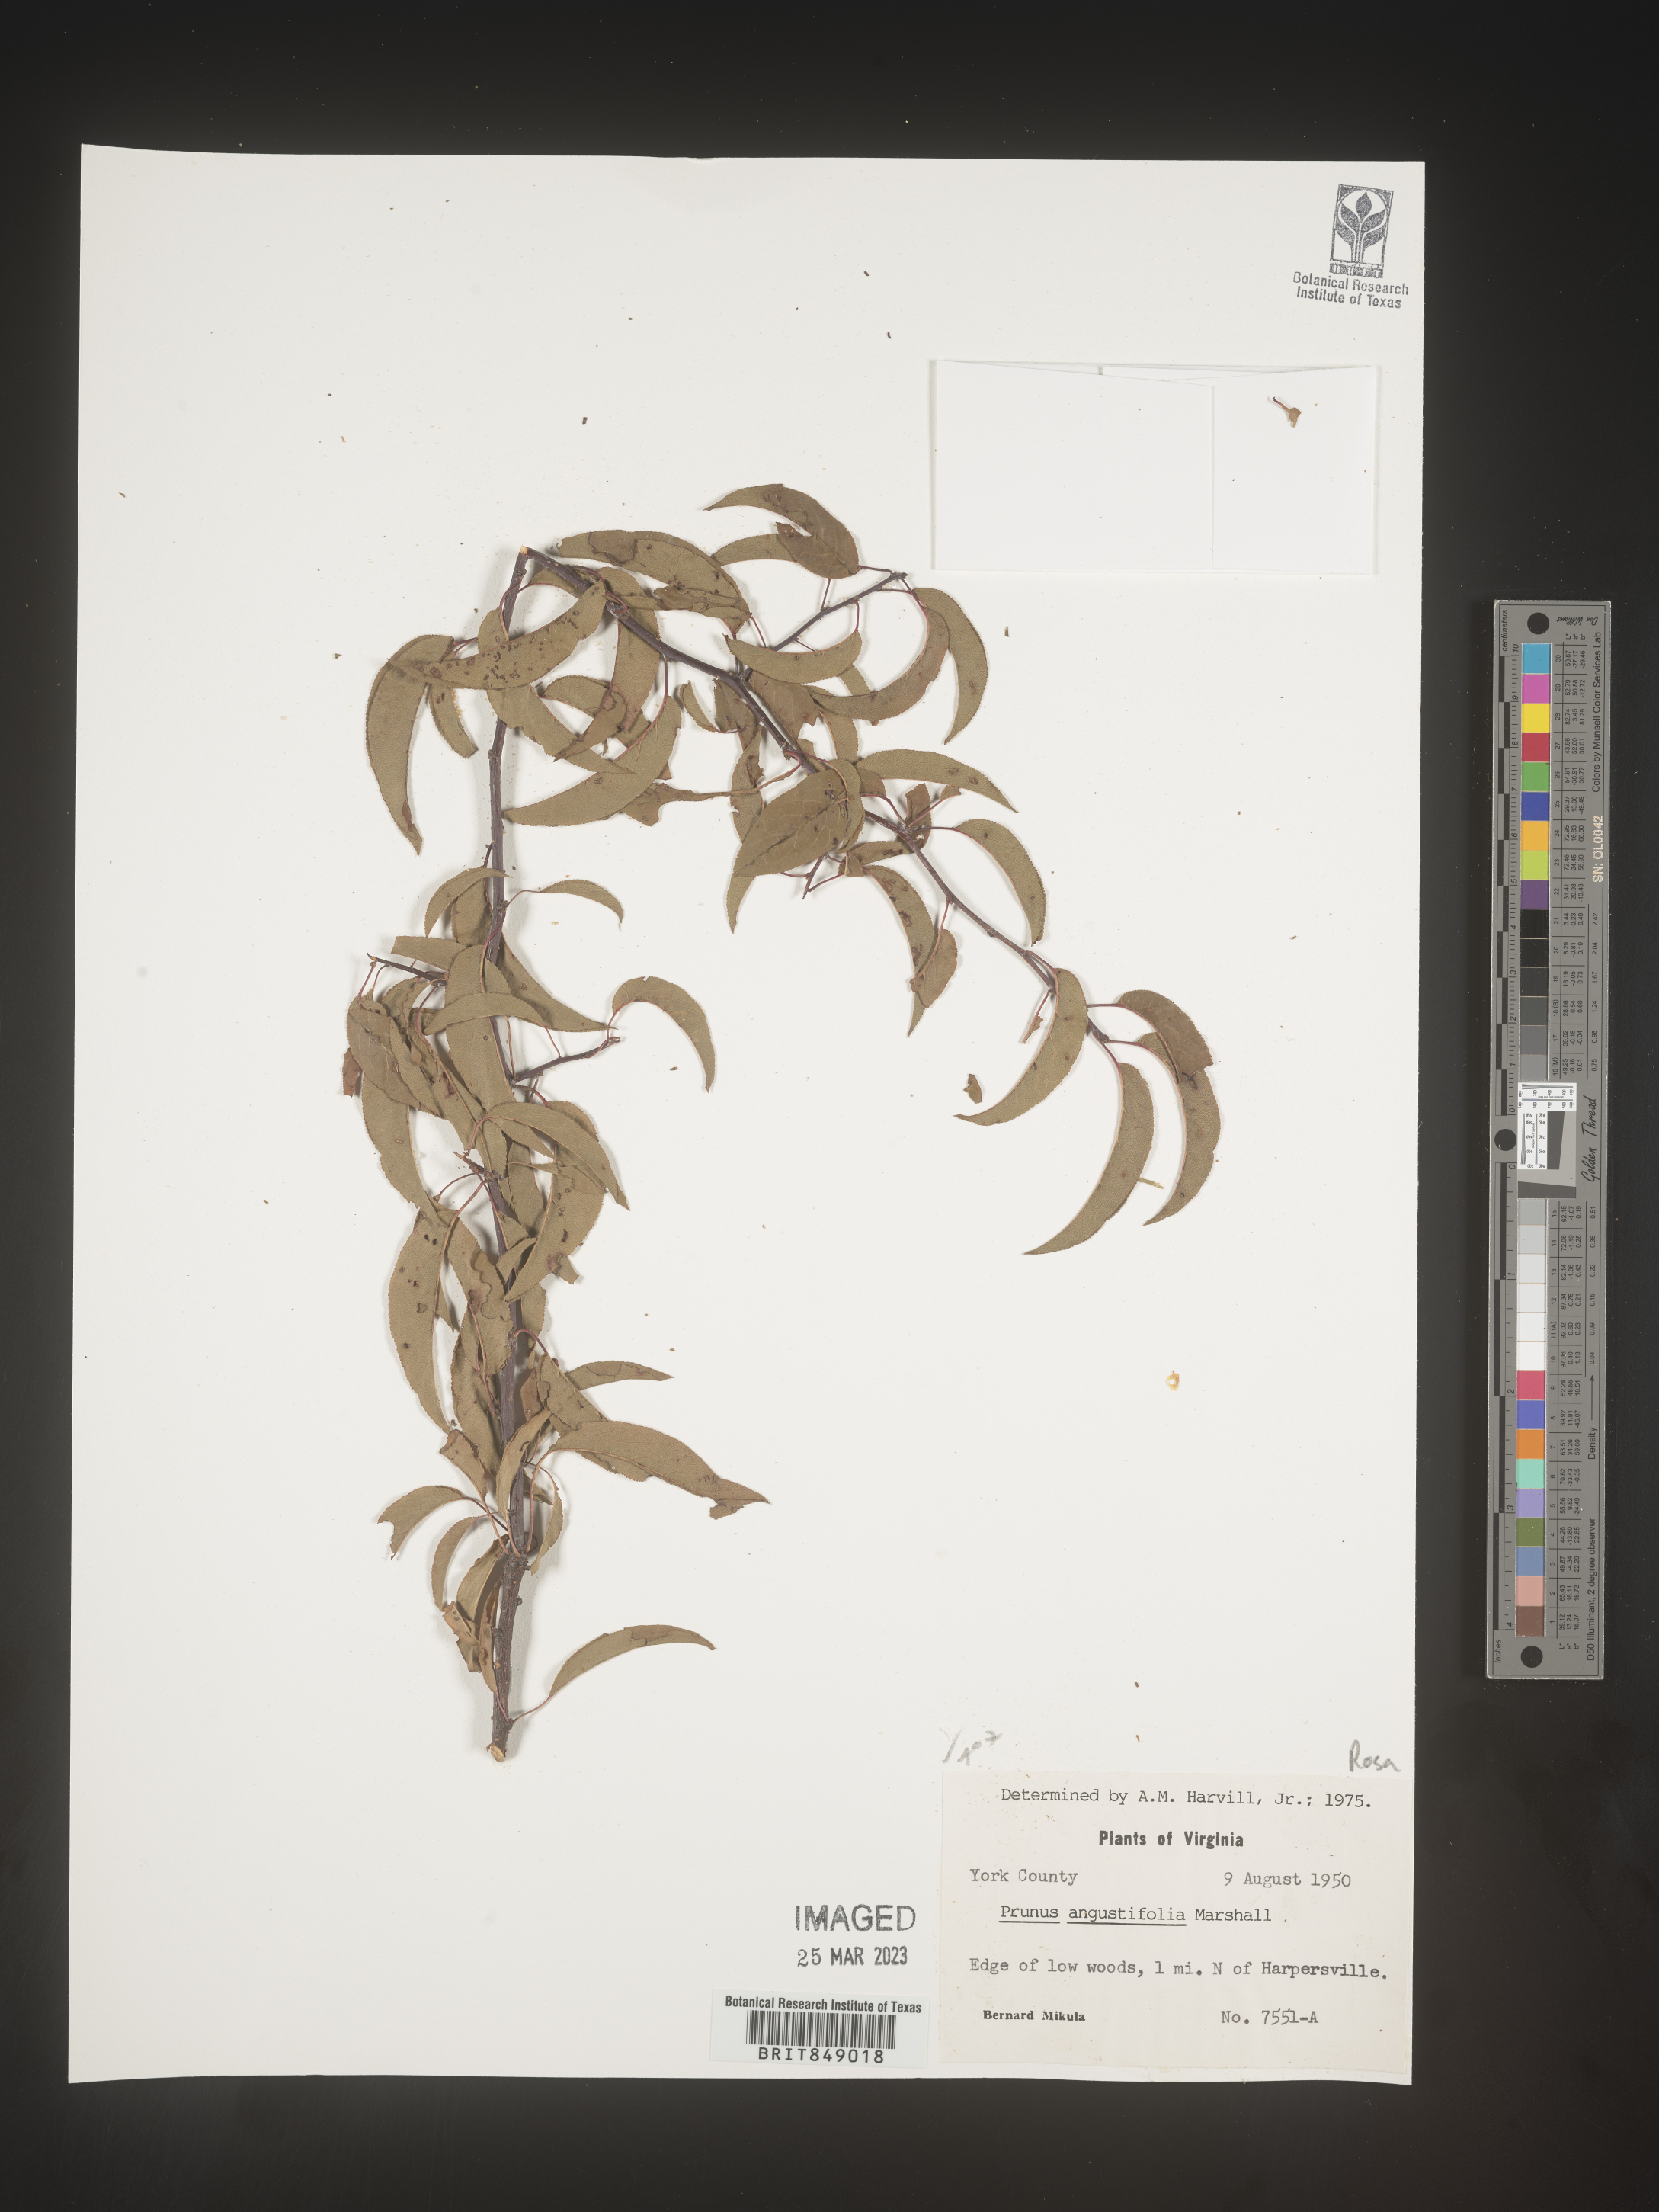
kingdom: Plantae
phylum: Tracheophyta
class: Magnoliopsida
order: Rosales
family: Rosaceae
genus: Prunus
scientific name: Prunus angustifolia
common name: Cherokee plum
